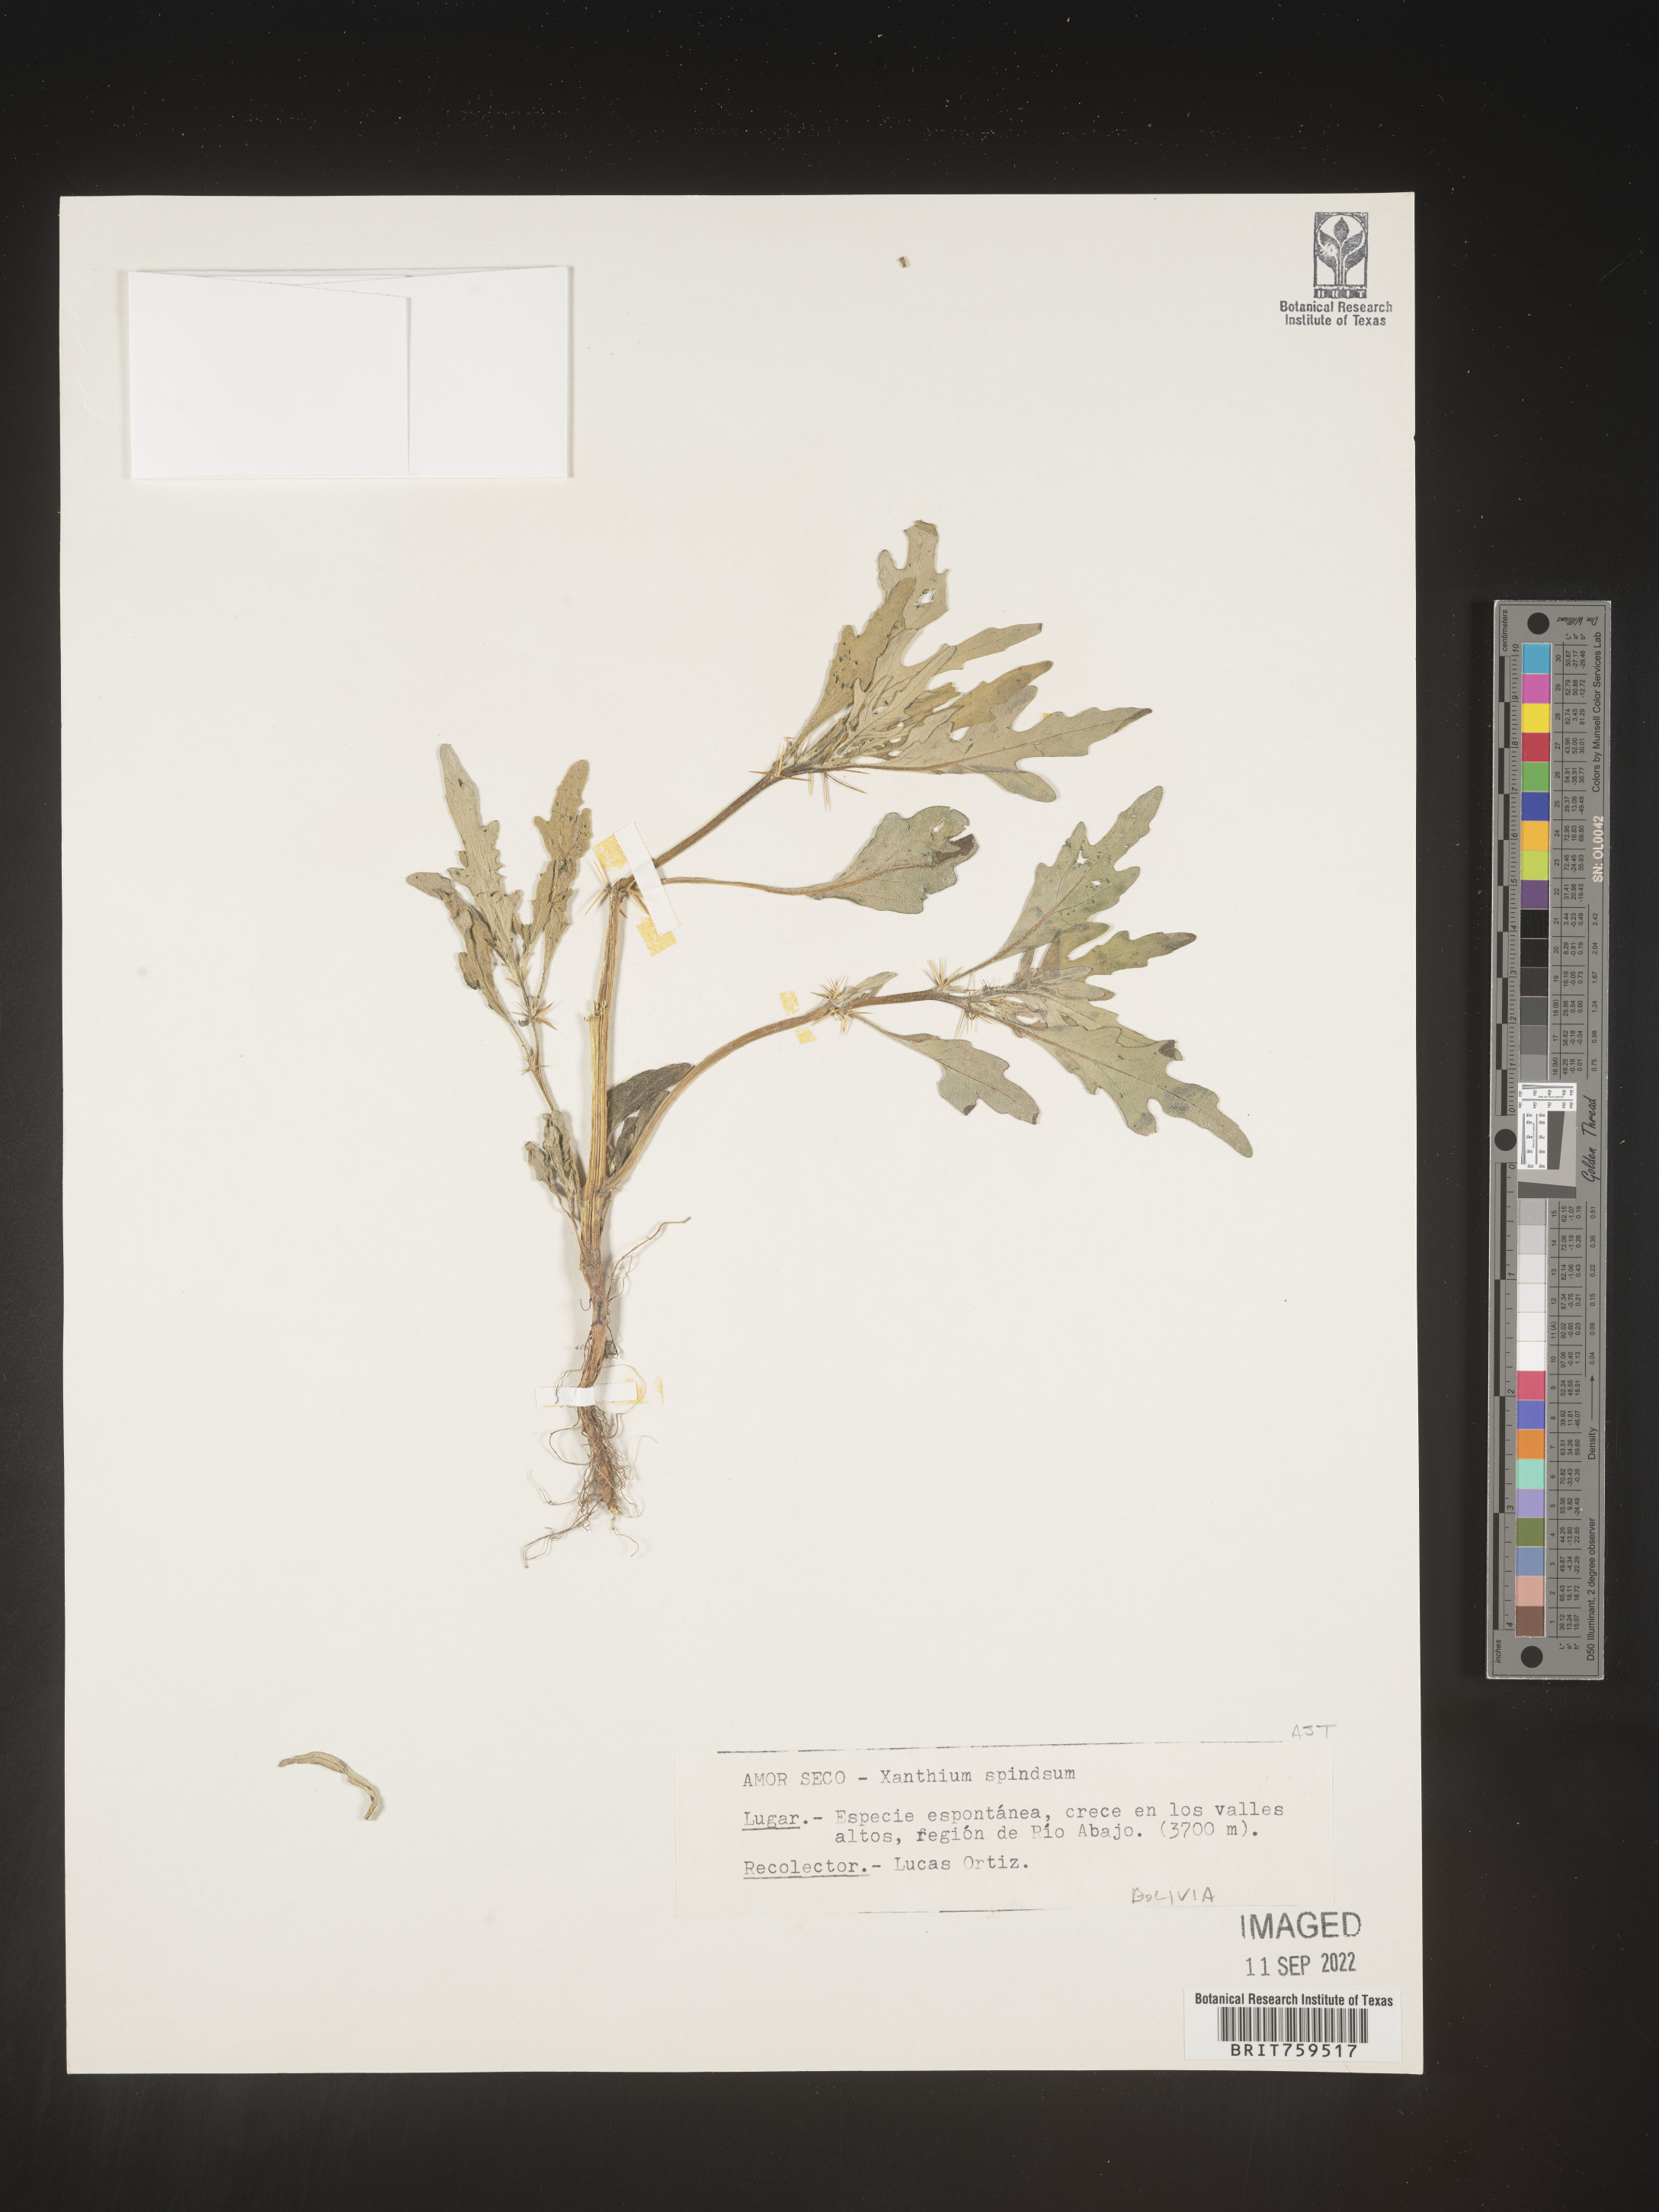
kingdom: Plantae
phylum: Tracheophyta
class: Magnoliopsida
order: Asterales
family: Asteraceae
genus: Xanthium
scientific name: Xanthium
